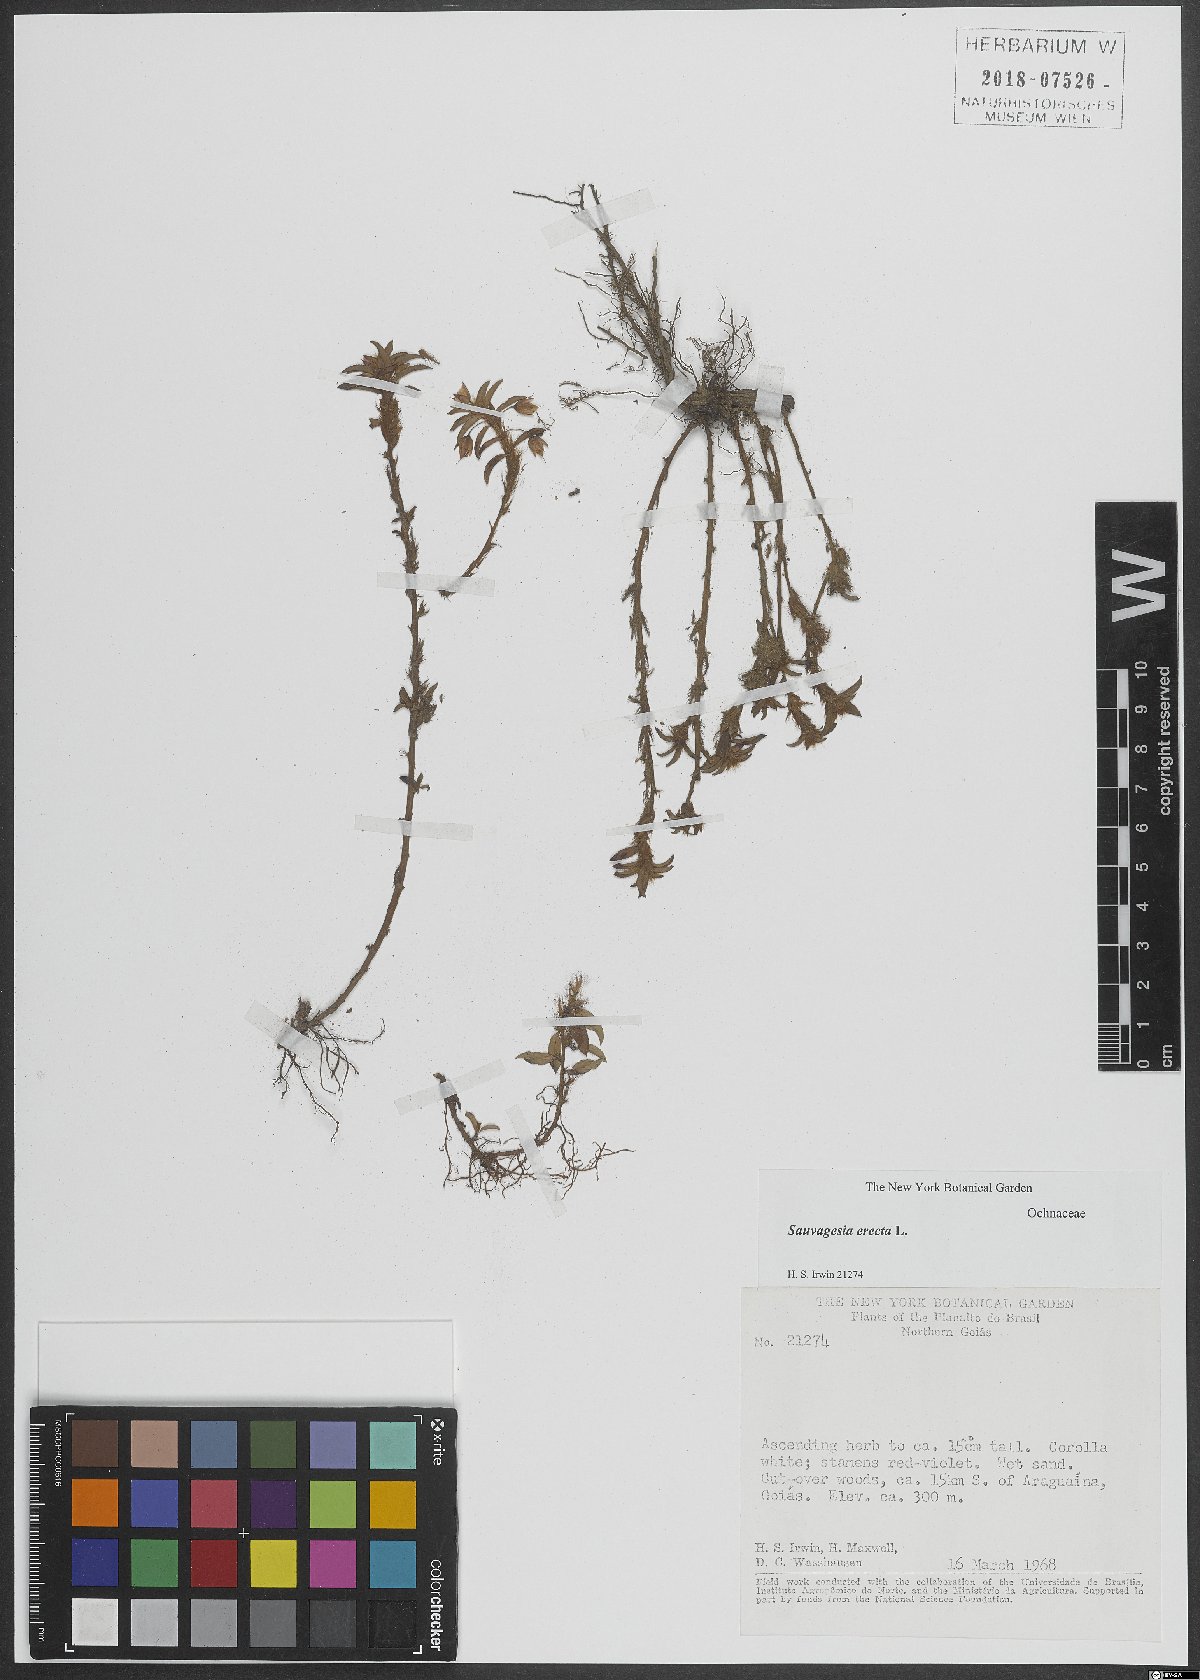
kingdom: Plantae
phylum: Tracheophyta
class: Magnoliopsida
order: Malpighiales
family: Ochnaceae
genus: Sauvagesia
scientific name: Sauvagesia erecta
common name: Creole tea
